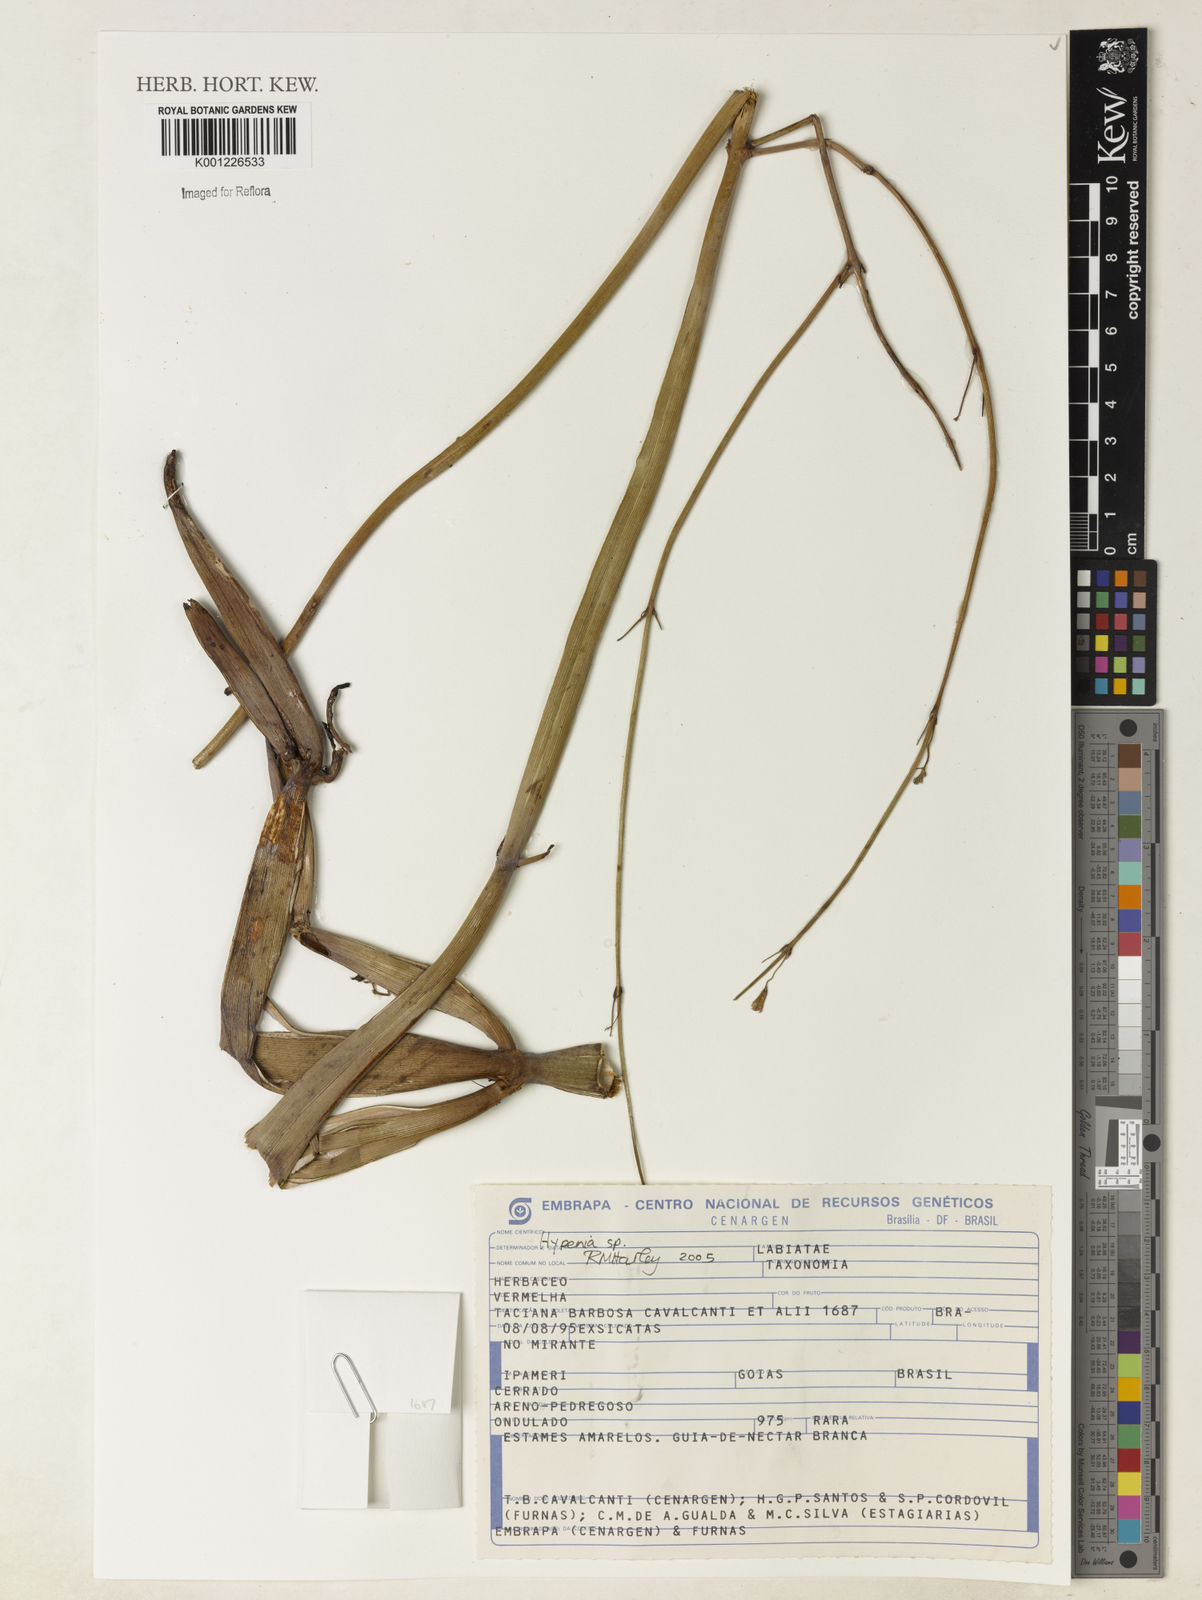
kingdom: Plantae
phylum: Tracheophyta
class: Magnoliopsida
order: Lamiales
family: Lamiaceae
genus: Hypenia
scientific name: Hypenia
